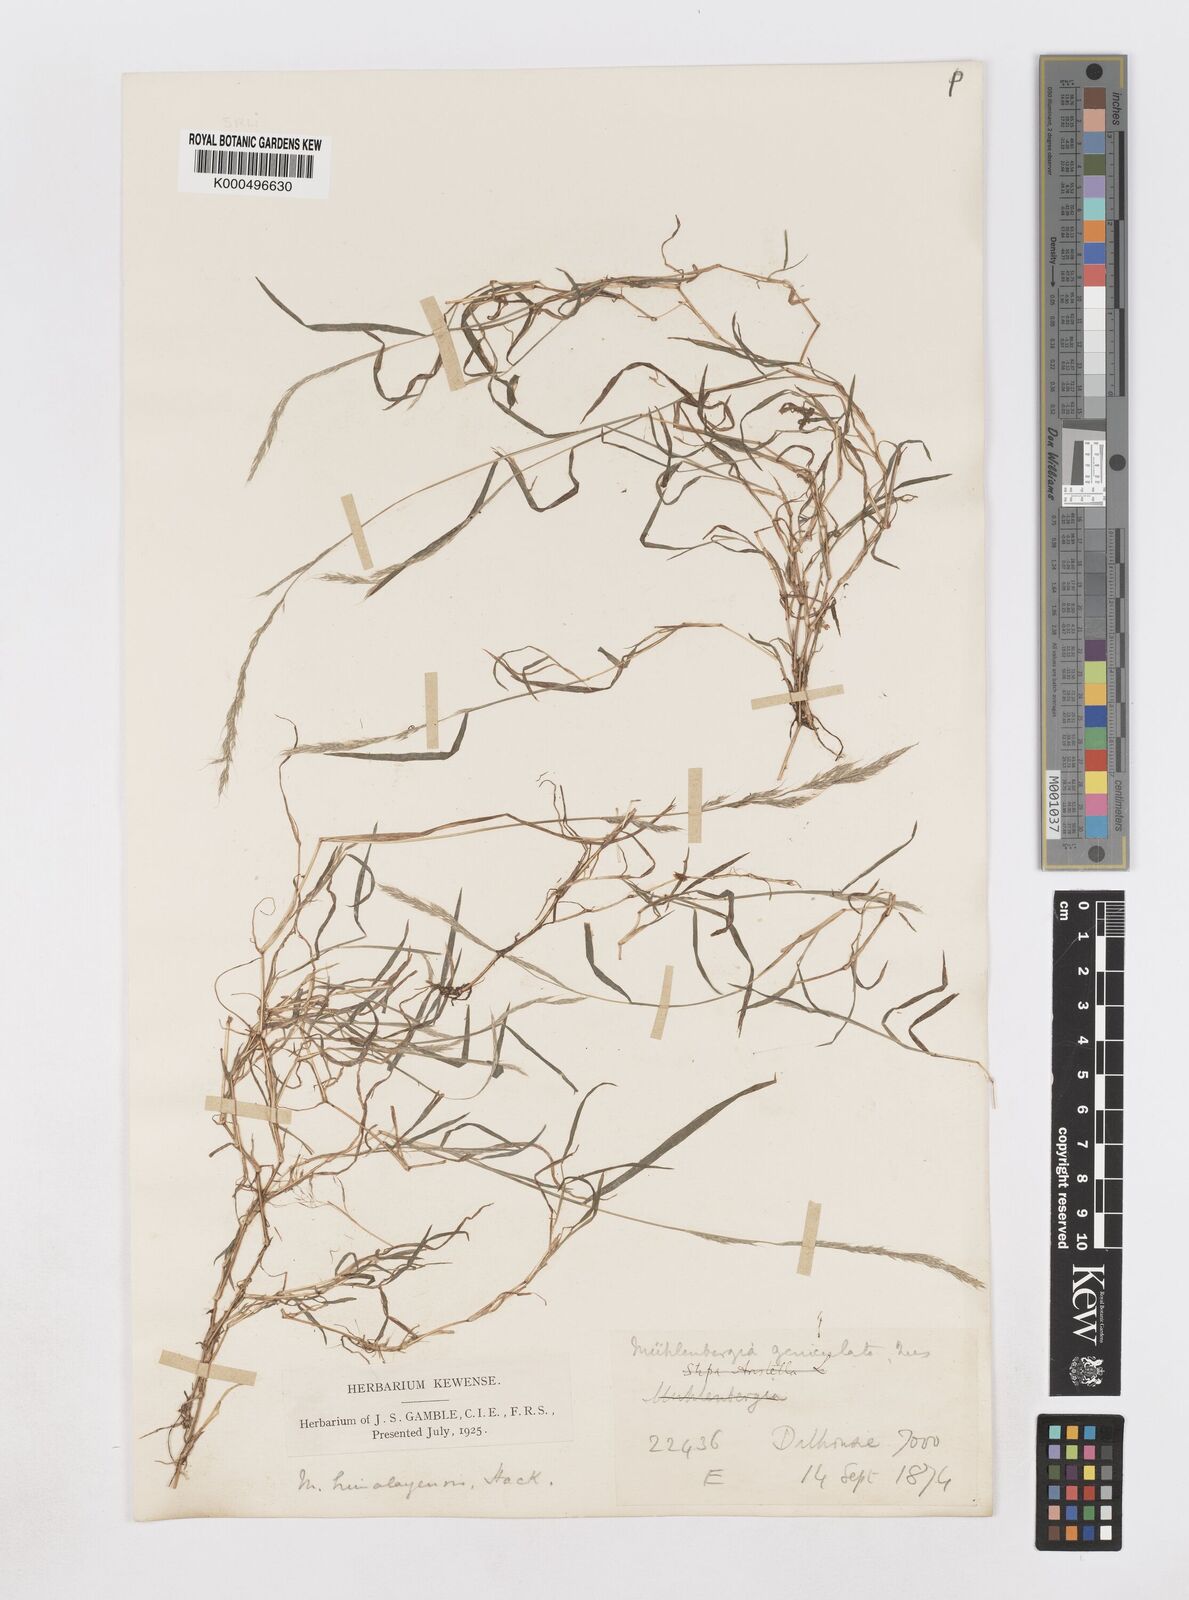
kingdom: Plantae
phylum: Tracheophyta
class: Liliopsida
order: Poales
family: Poaceae
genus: Muhlenbergia
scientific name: Muhlenbergia duthieana
